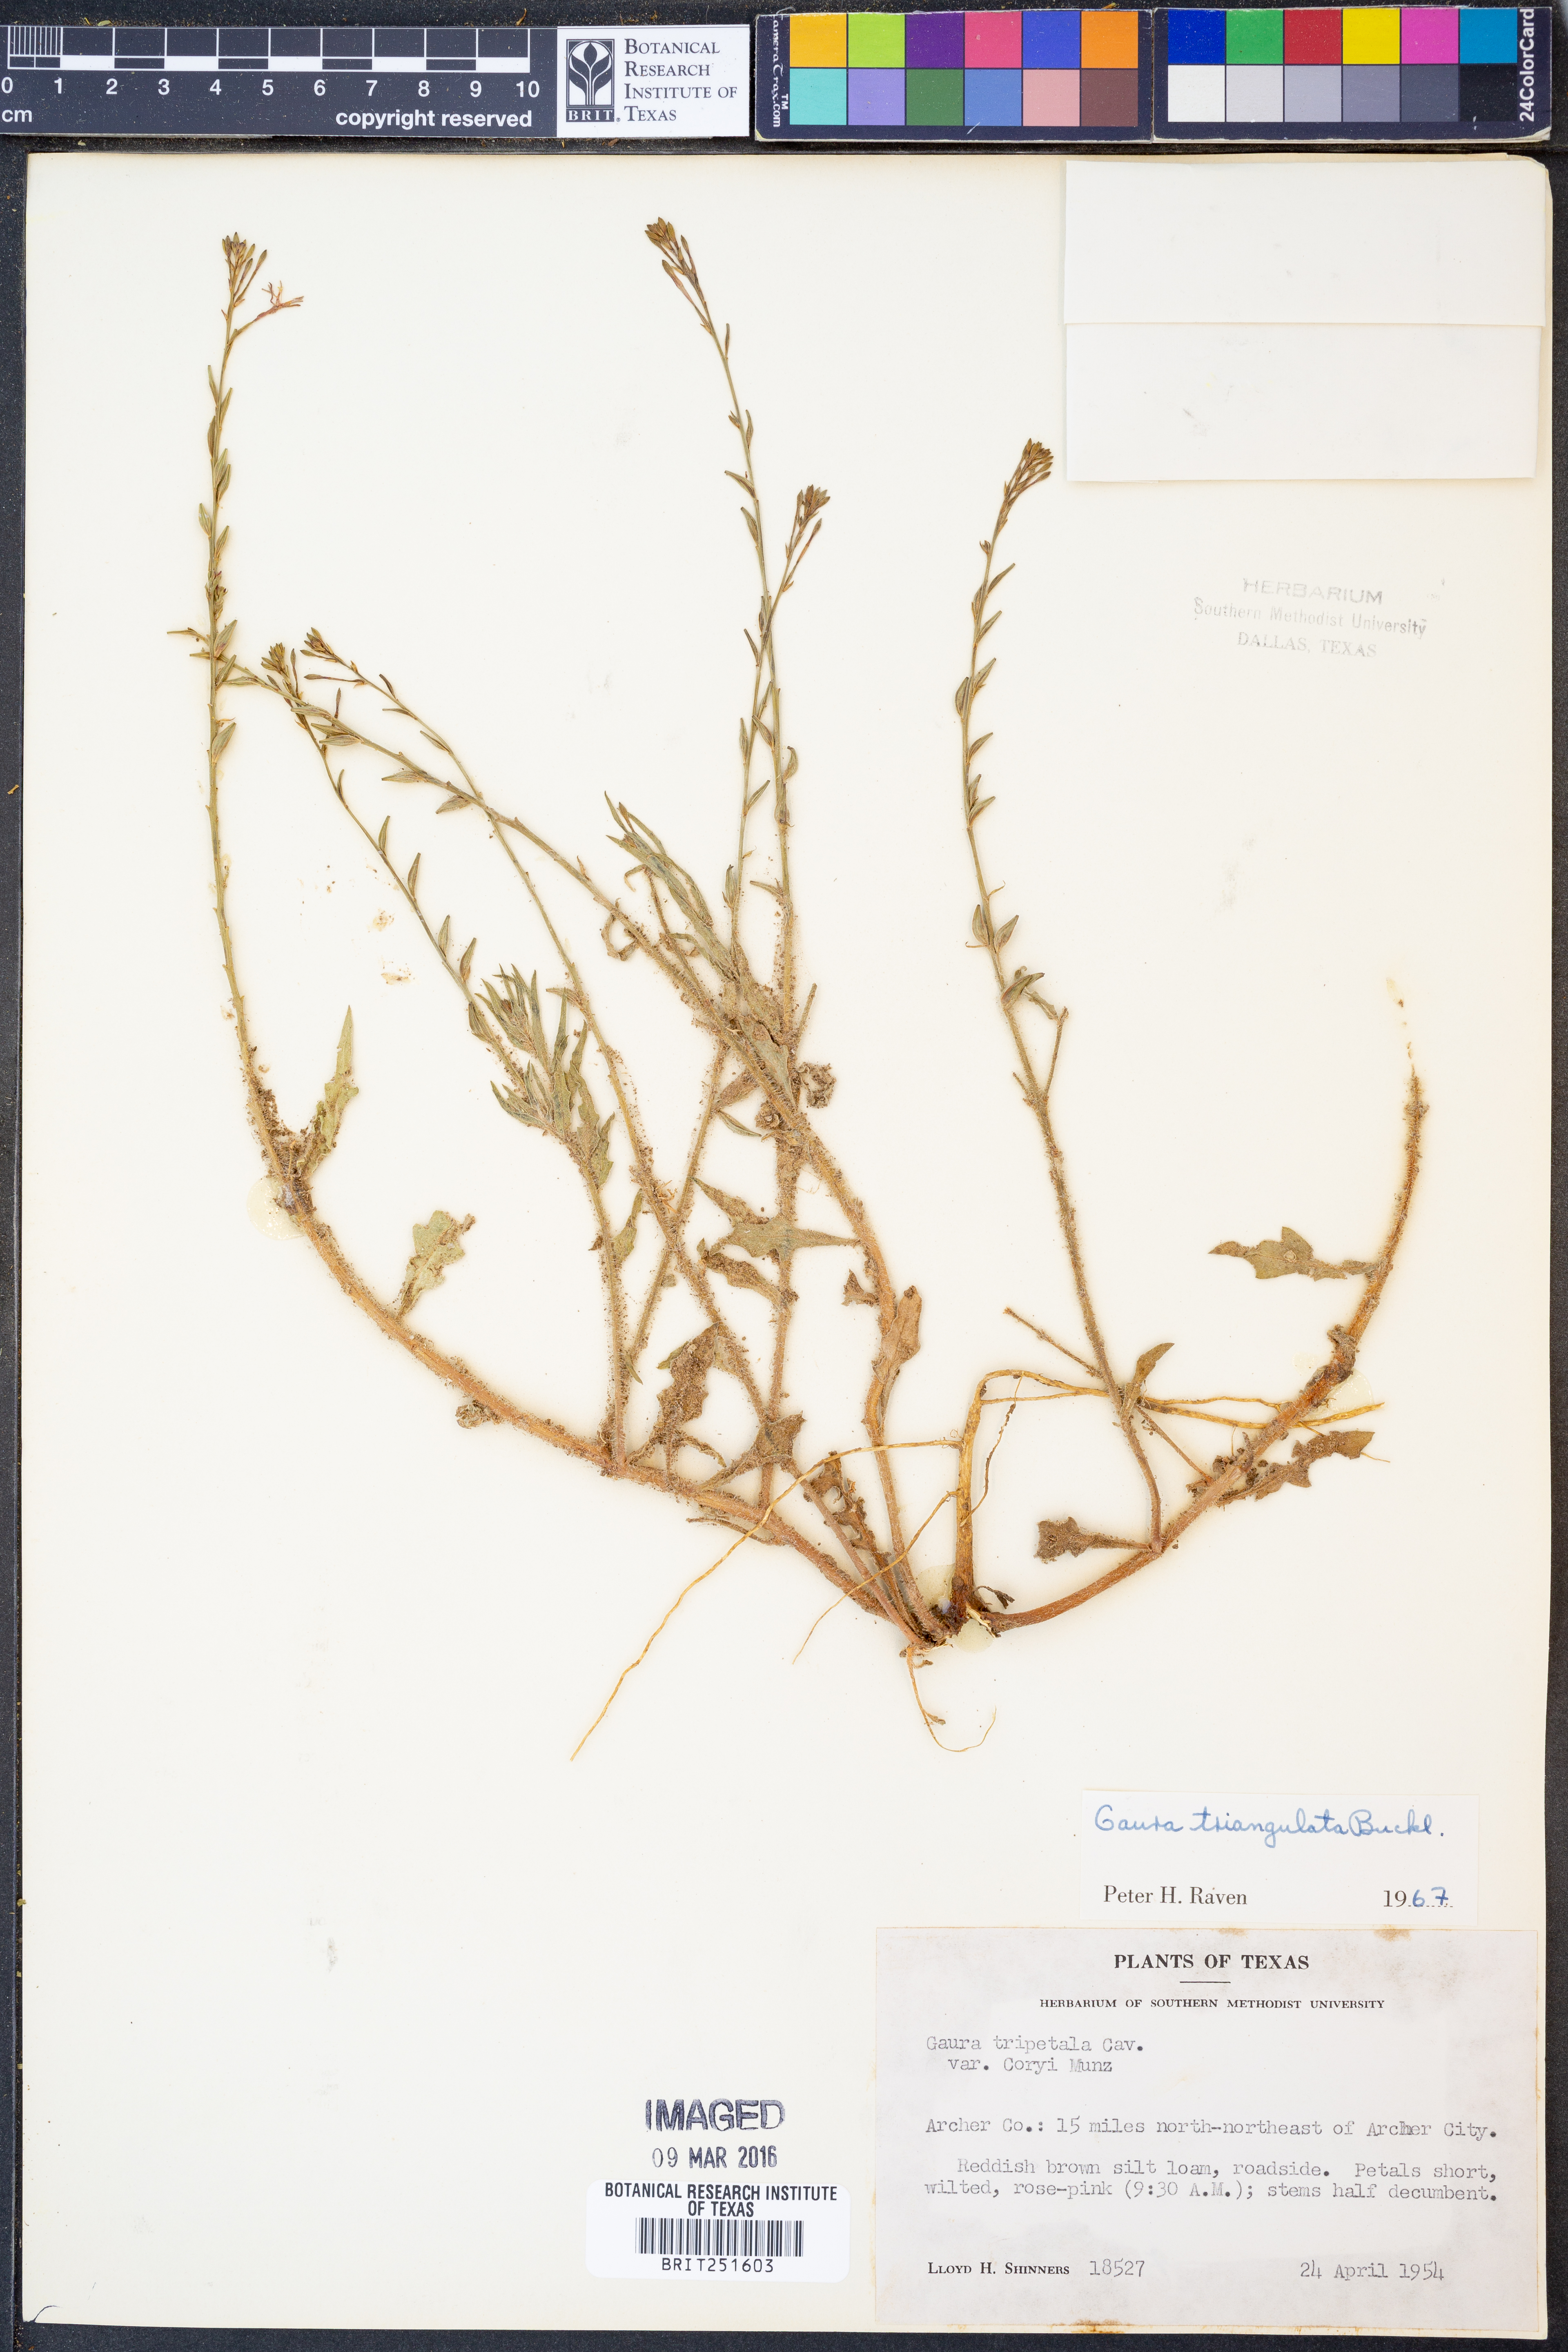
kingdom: Plantae
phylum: Tracheophyta
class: Magnoliopsida
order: Myrtales
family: Onagraceae
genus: Oenothera
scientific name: Oenothera triangulata
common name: Prairie beeblossom
